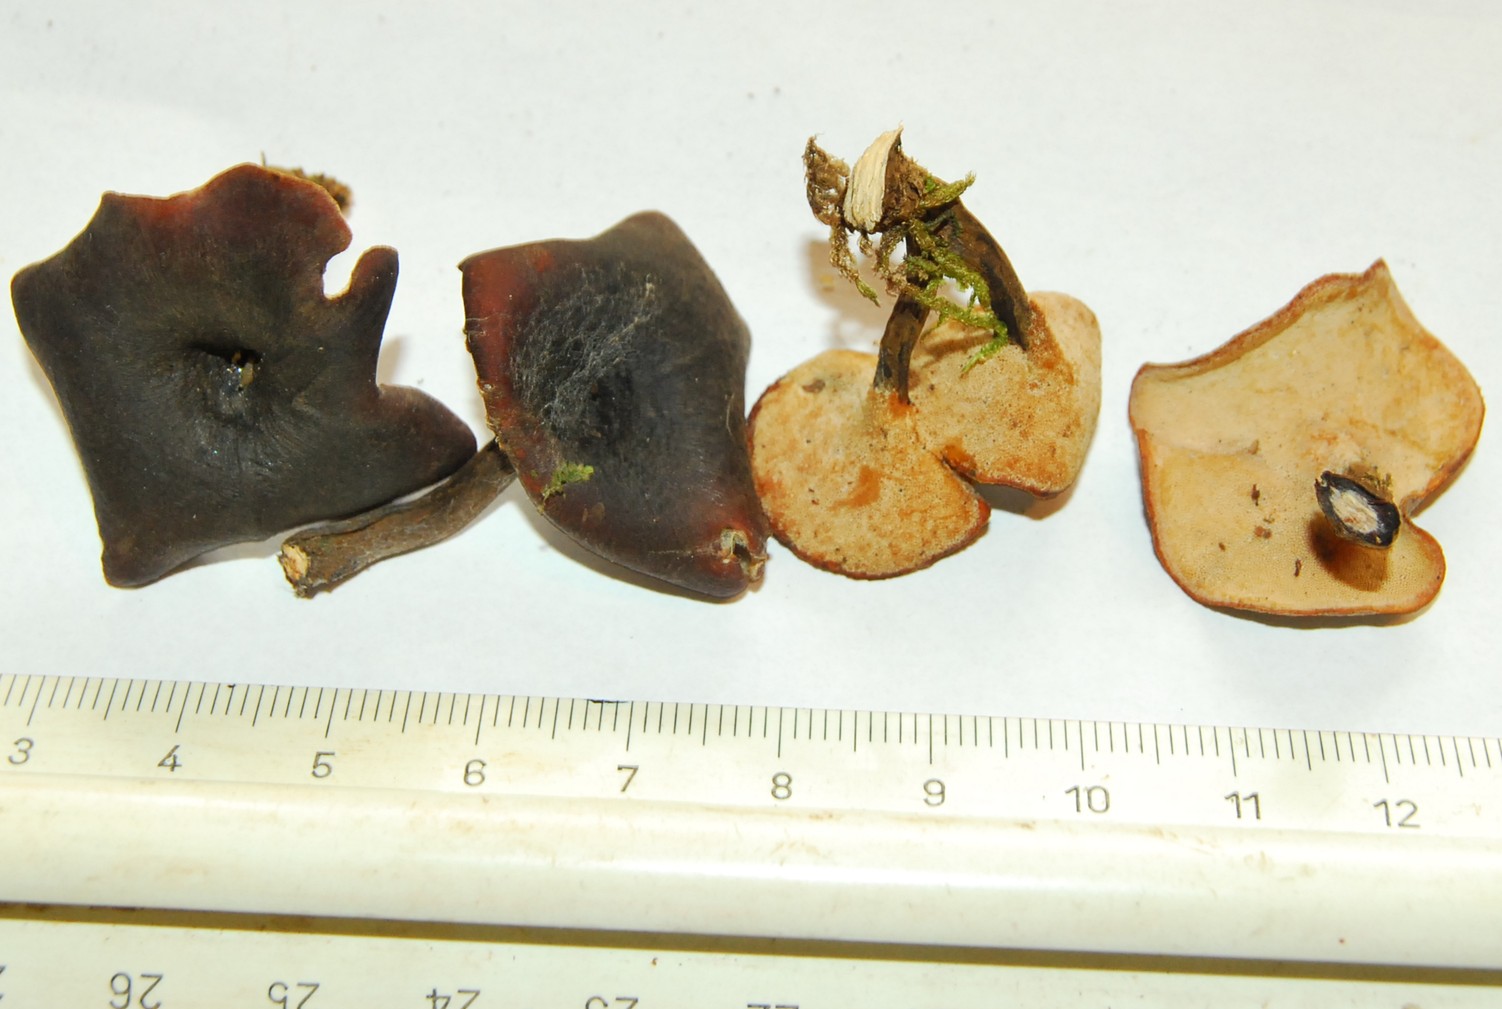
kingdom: Fungi
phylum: Basidiomycota
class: Agaricomycetes
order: Polyporales
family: Polyporaceae
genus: Picipes
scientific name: Picipes tubaeformis
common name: trompet-stilkporesvamp
